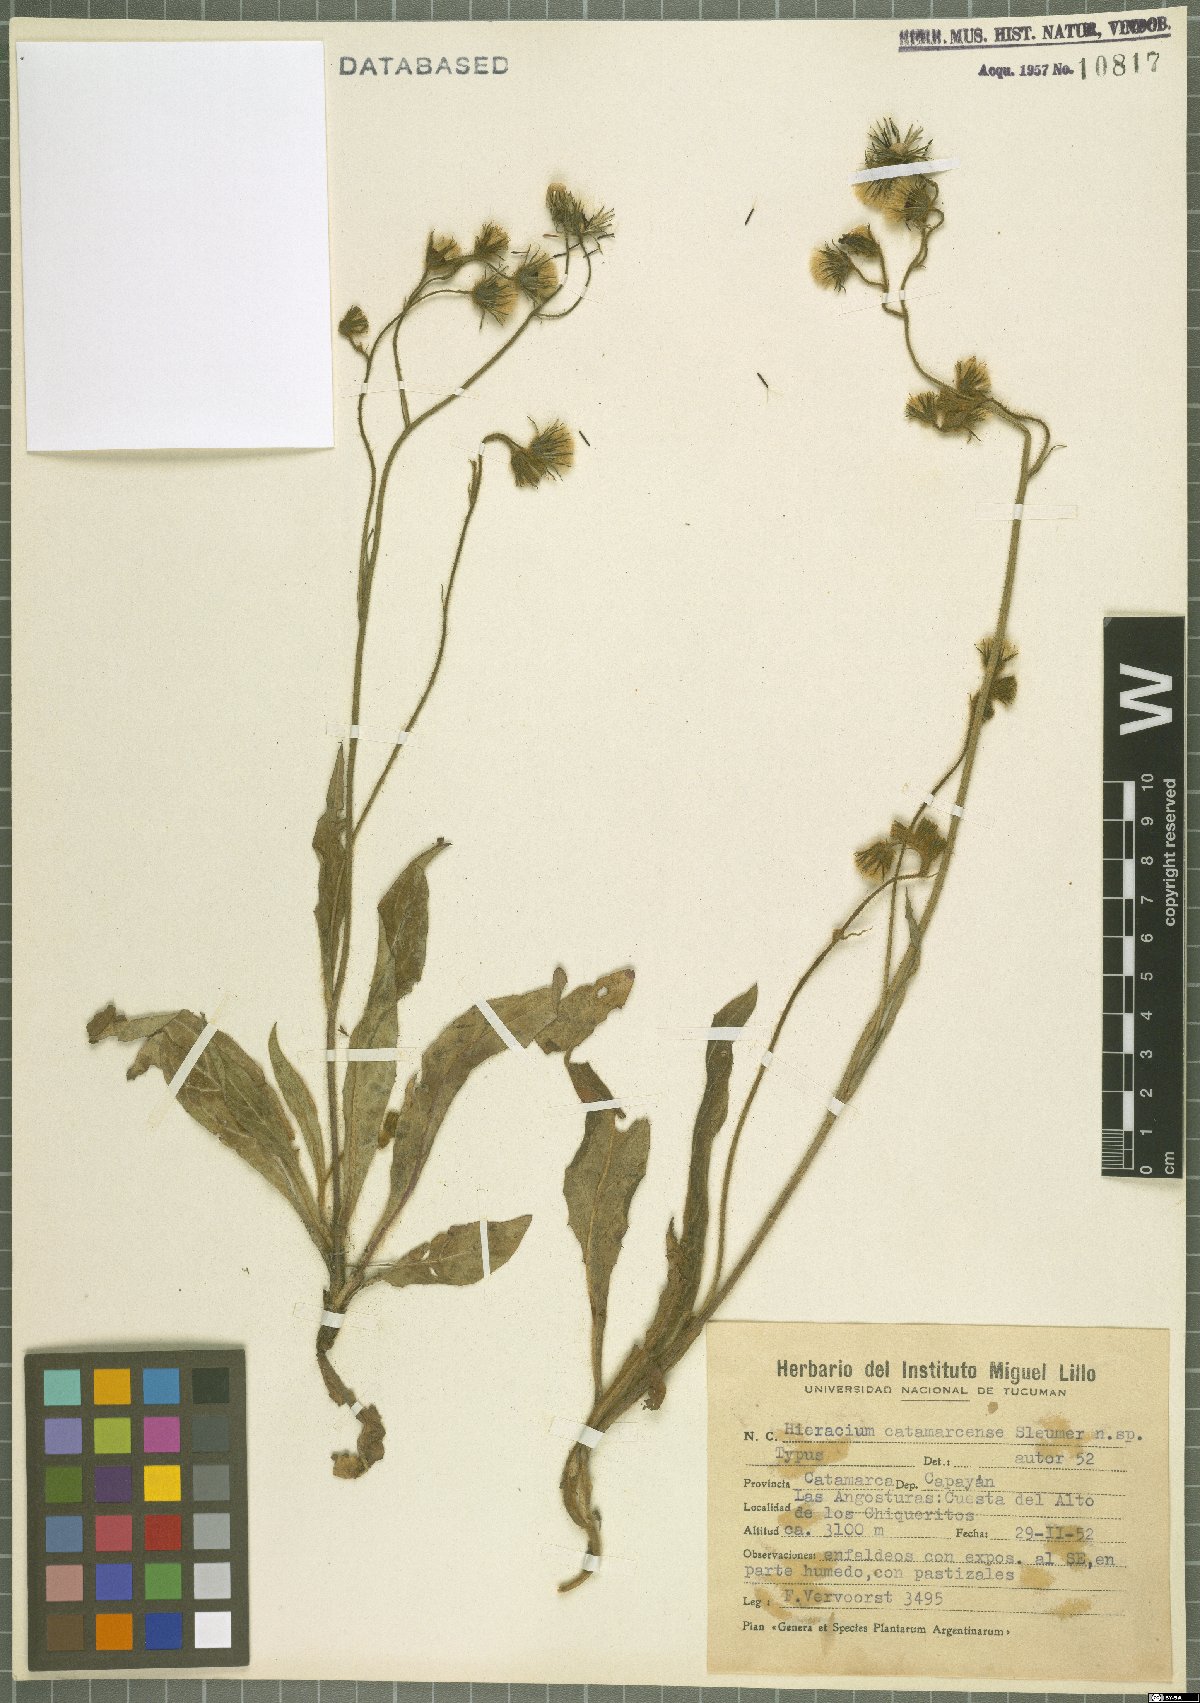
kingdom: Plantae
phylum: Tracheophyta
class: Magnoliopsida
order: Asterales
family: Asteraceae
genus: Hieracium
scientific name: Hieracium catamarcense
